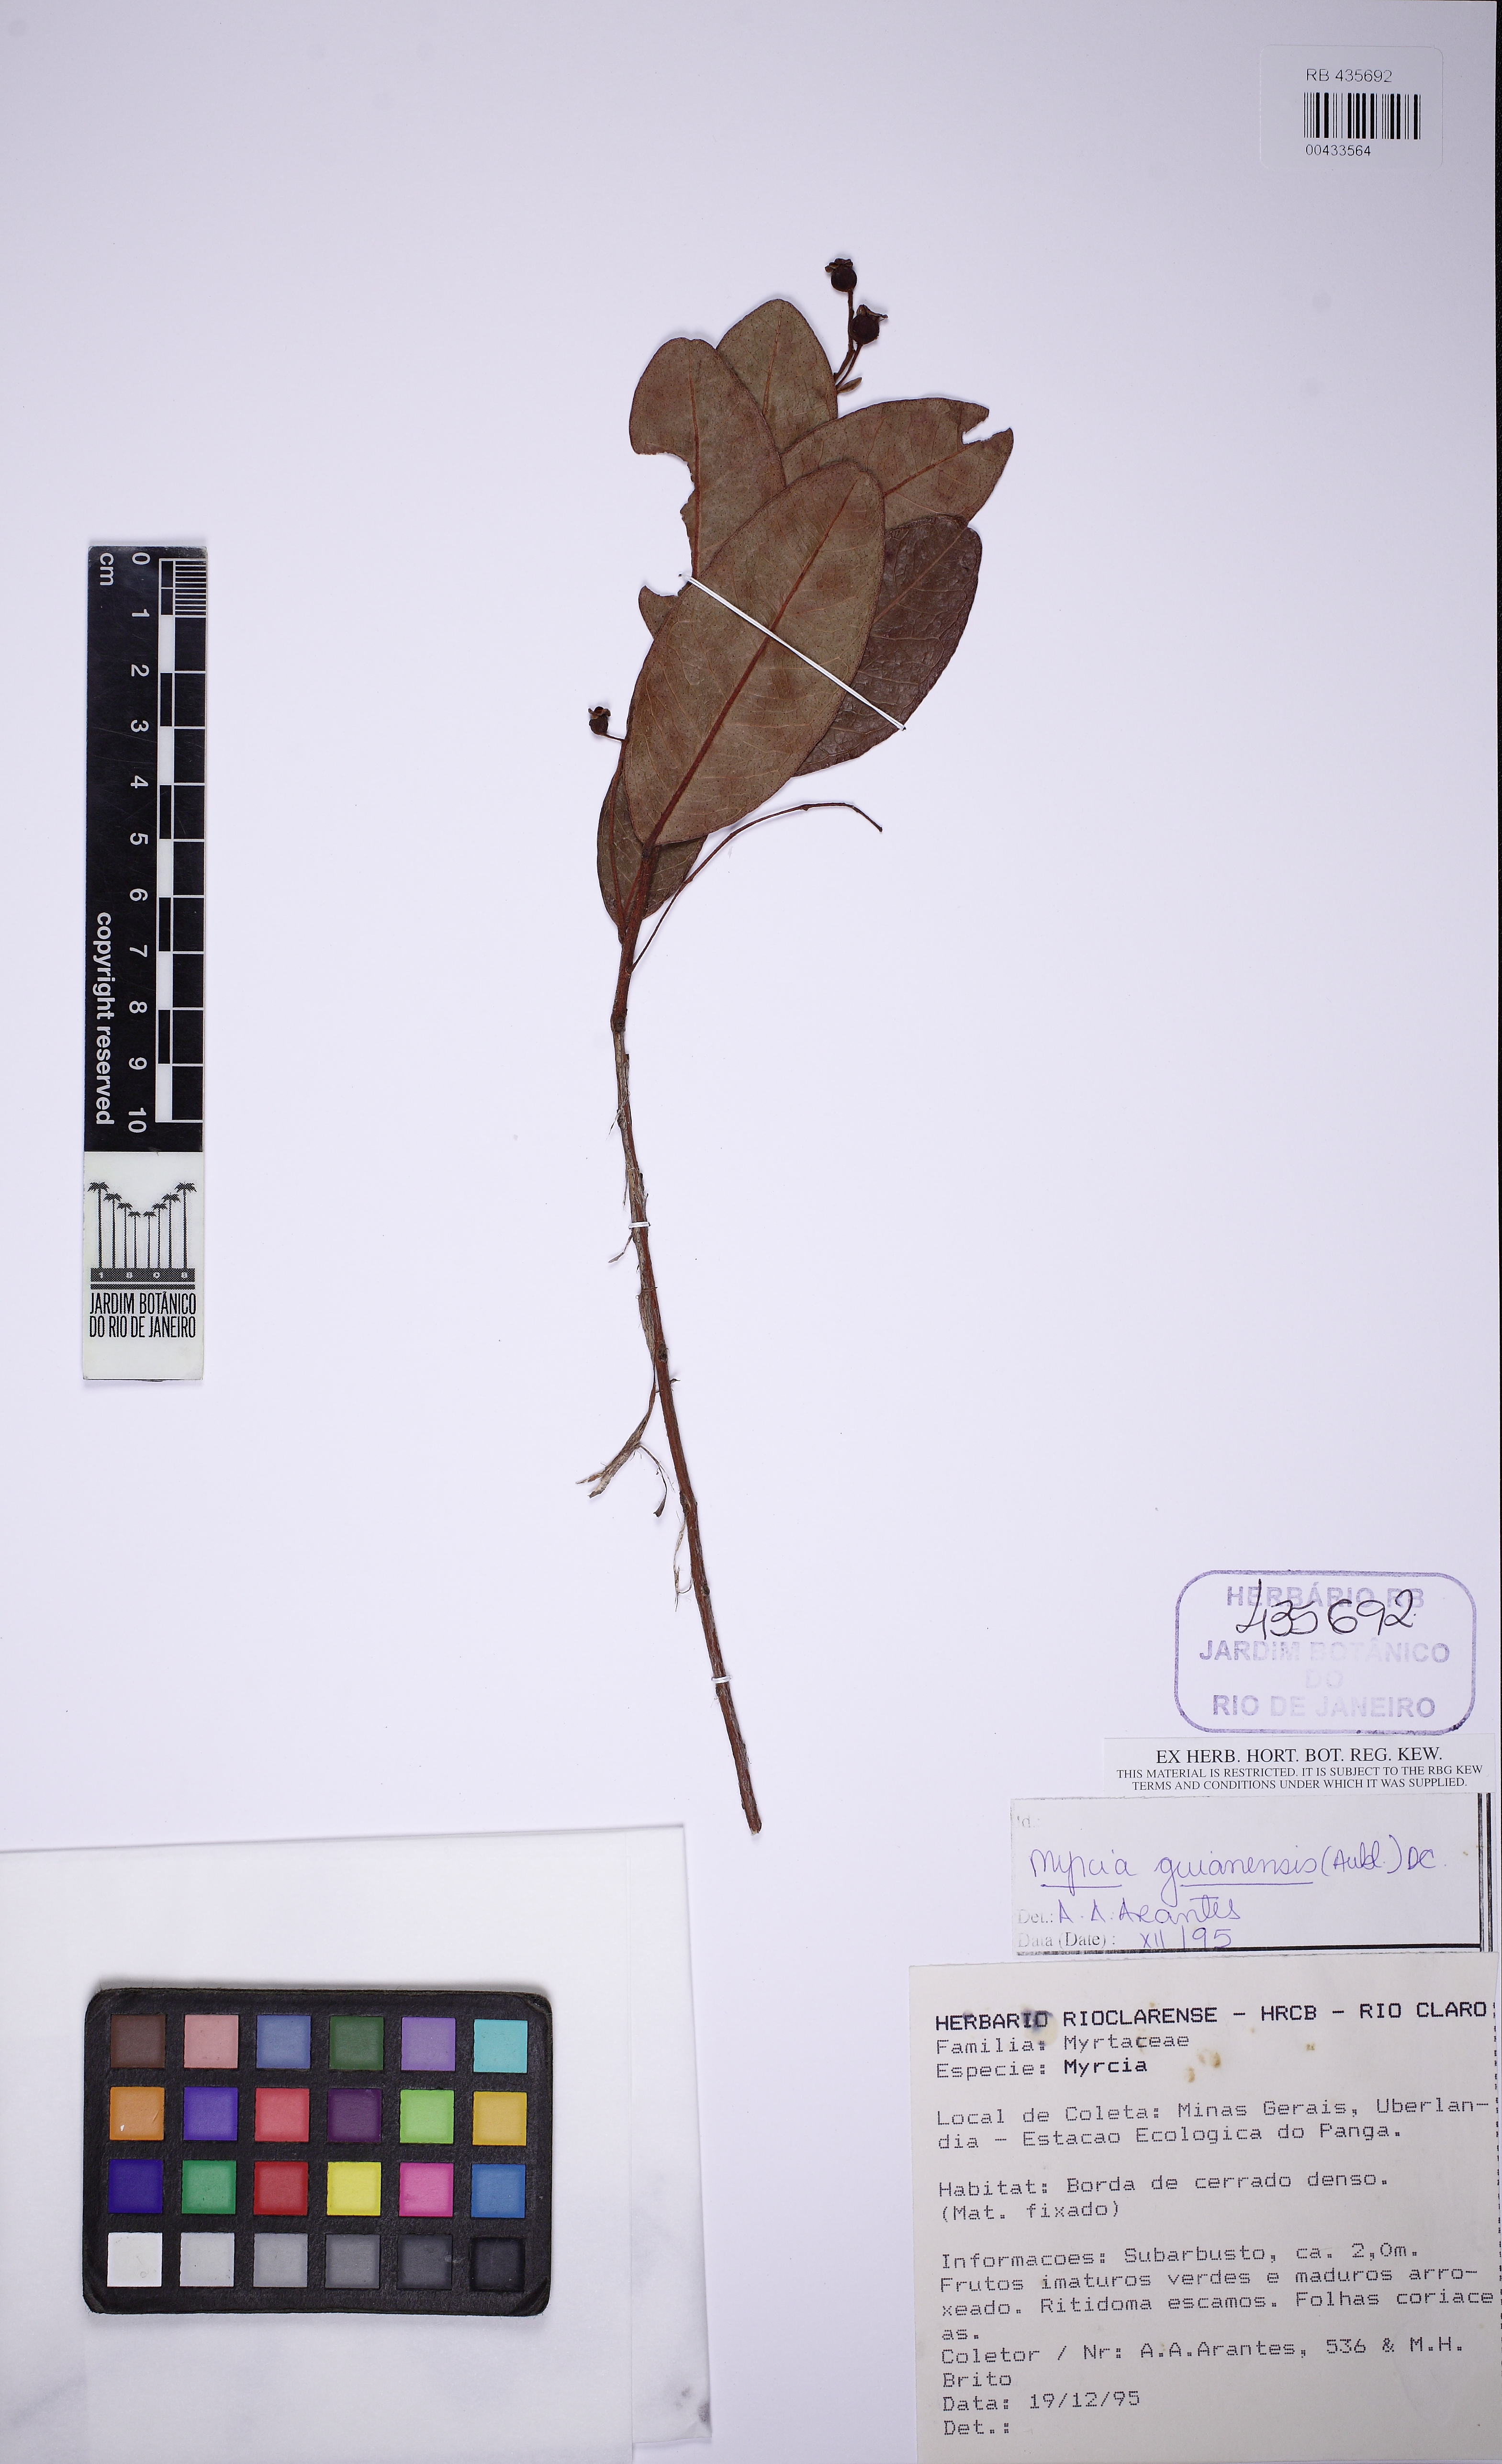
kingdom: Plantae
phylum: Tracheophyta
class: Magnoliopsida
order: Myrtales
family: Myrtaceae
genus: Myrcia
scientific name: Myrcia guianensis
